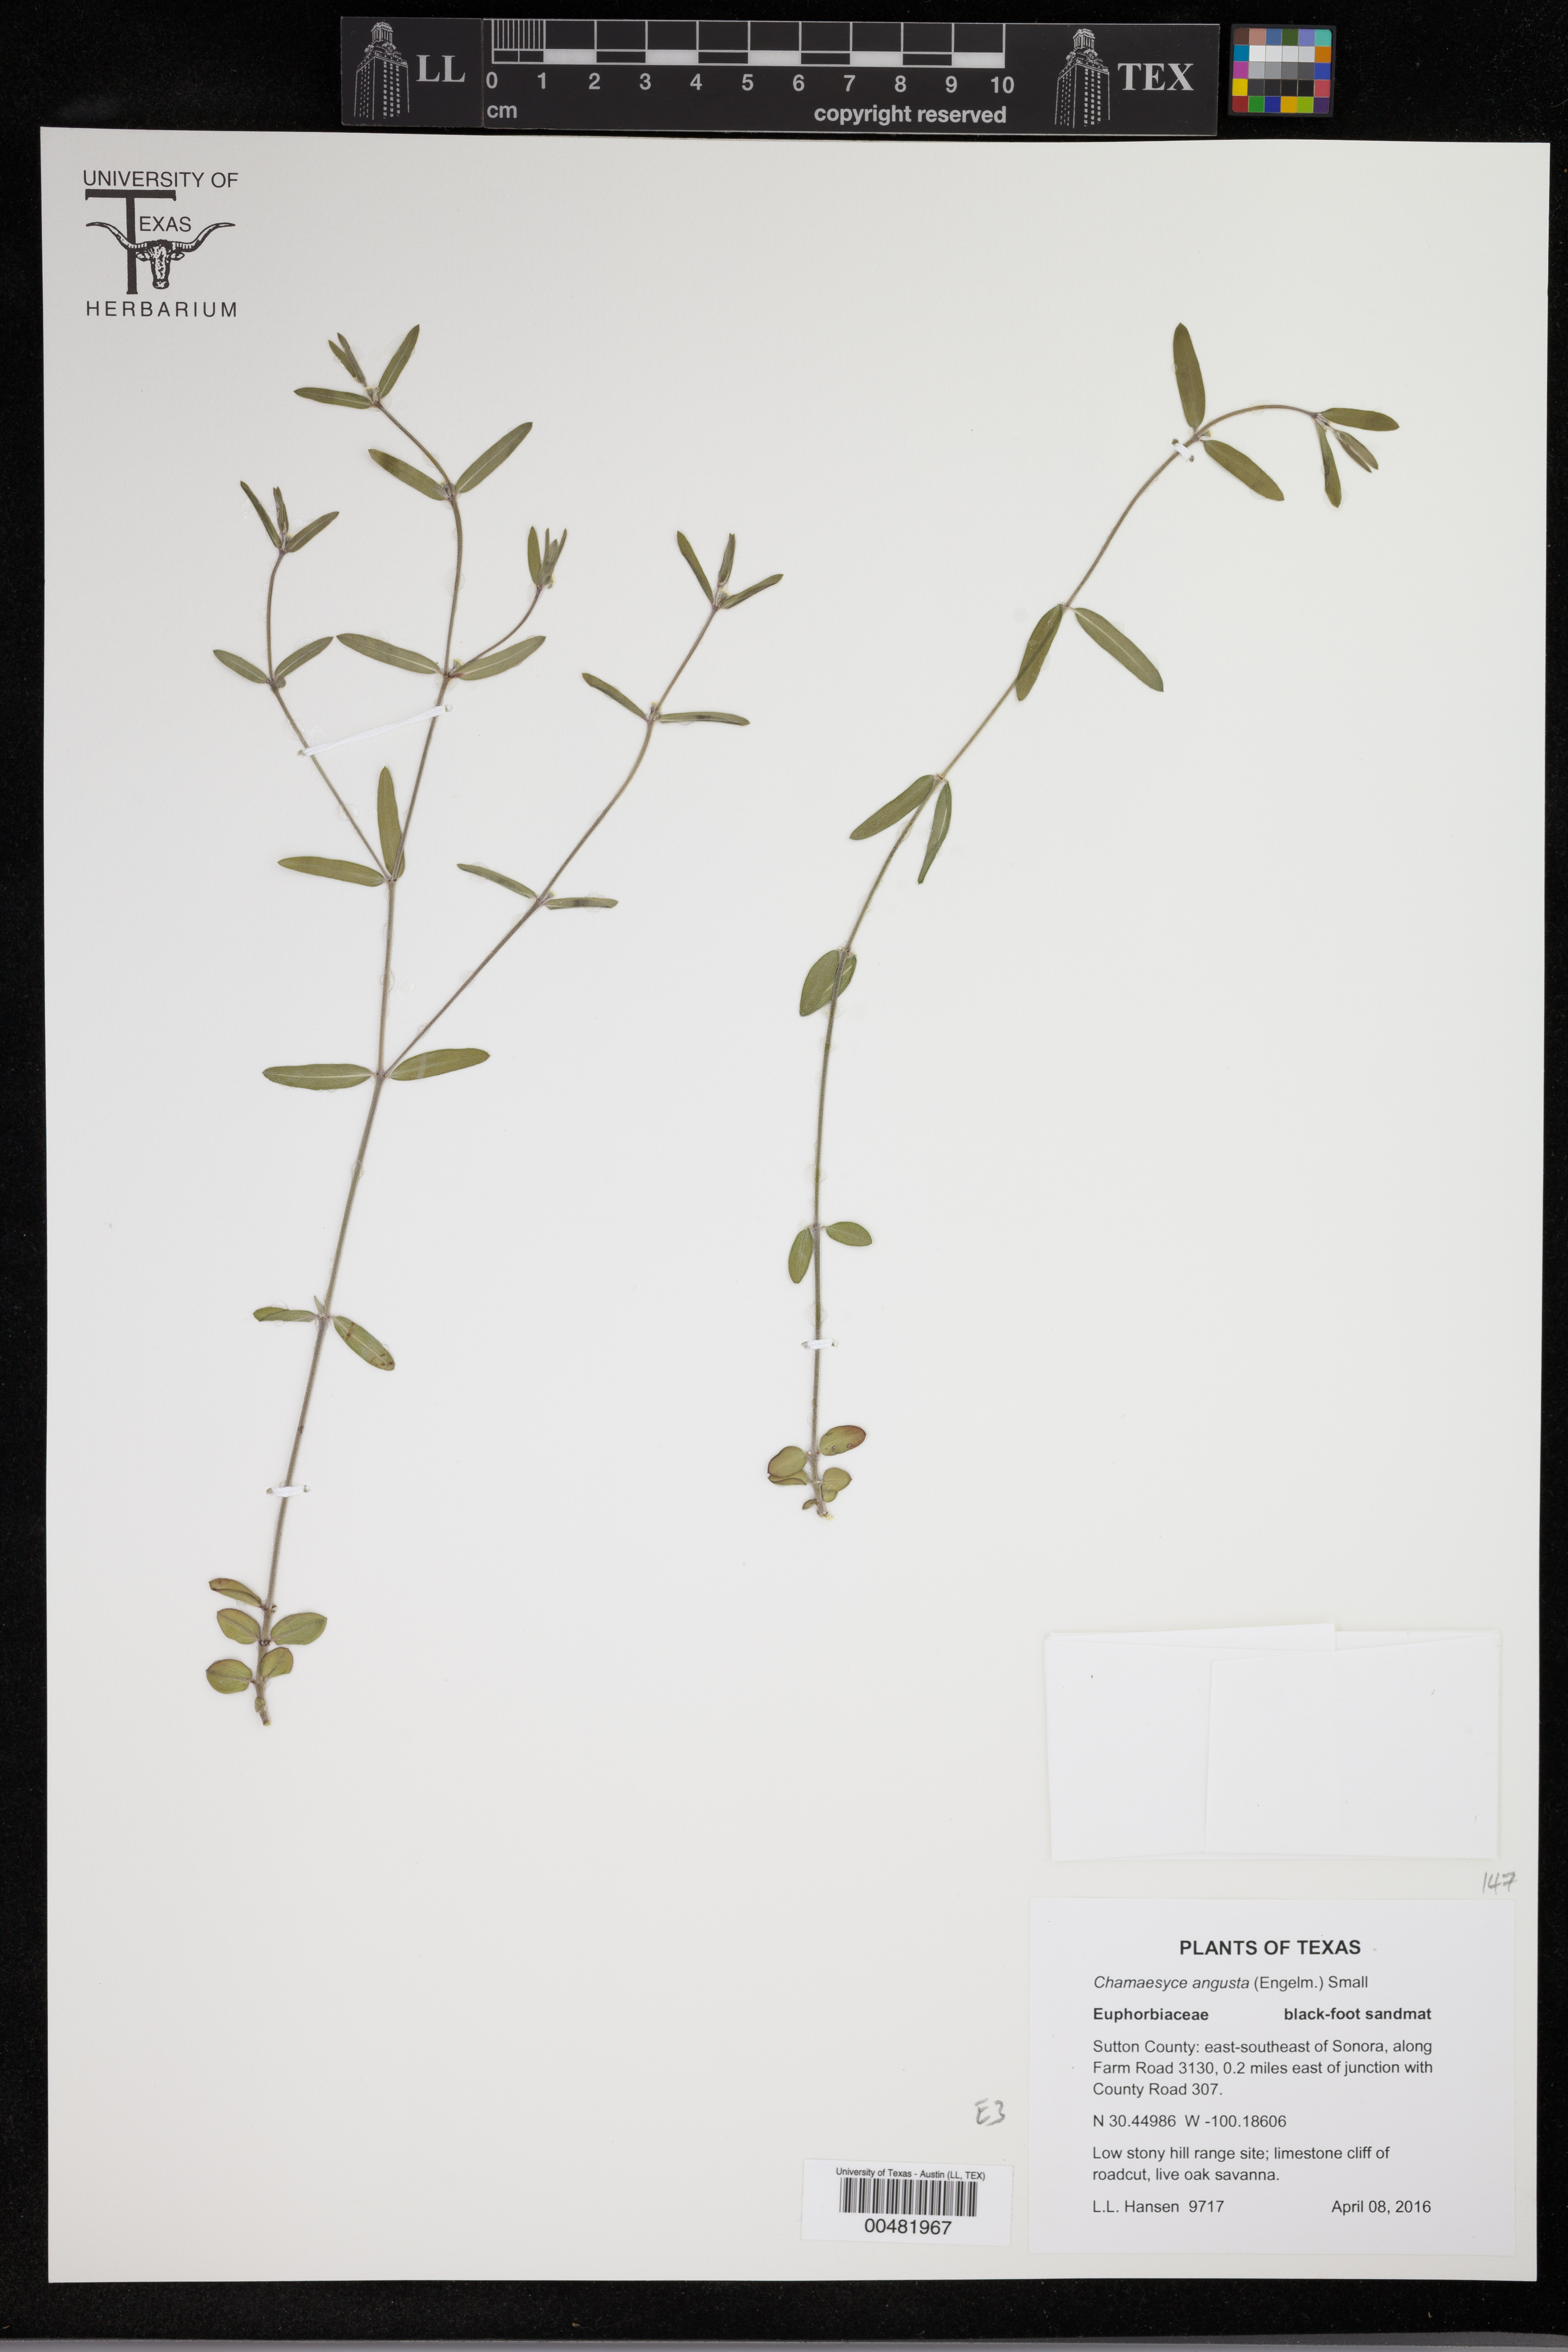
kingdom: Plantae
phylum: Tracheophyta
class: Magnoliopsida
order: Malpighiales
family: Euphorbiaceae
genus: Euphorbia
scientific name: Euphorbia angusta
